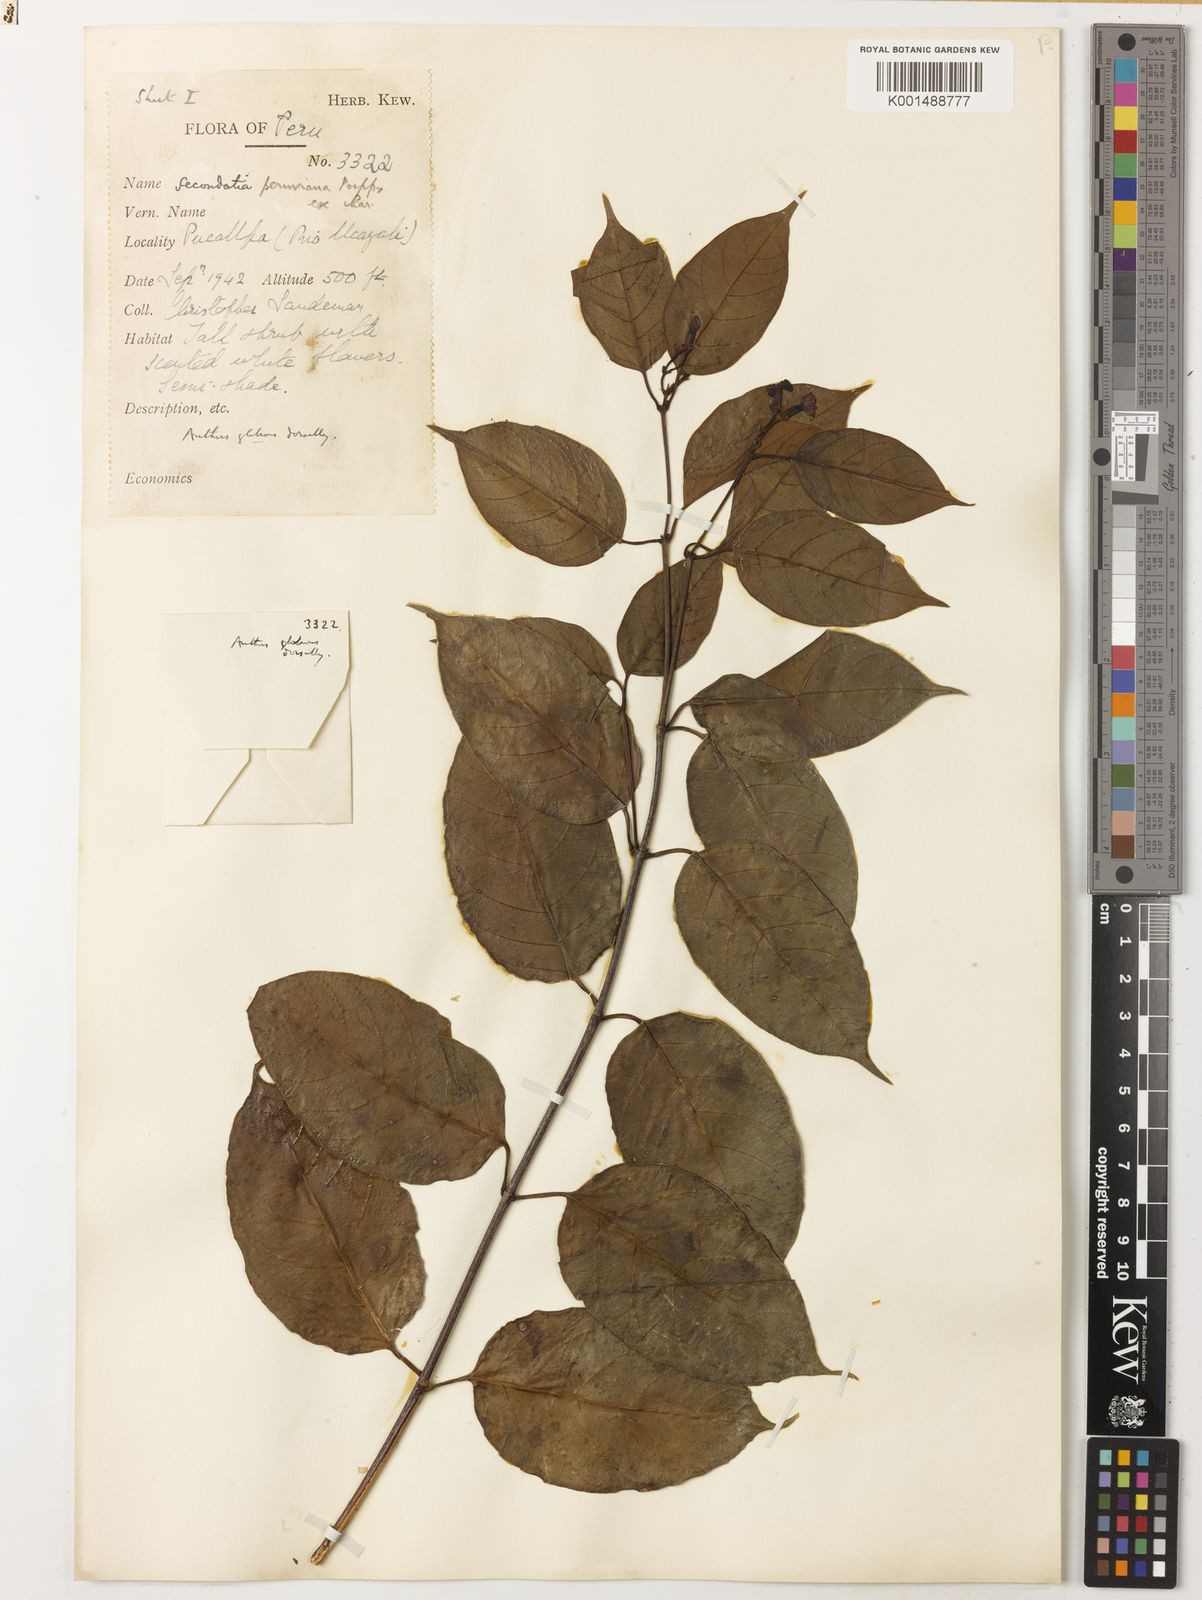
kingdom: Plantae
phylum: Tracheophyta
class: Magnoliopsida
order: Gentianales
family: Apocynaceae
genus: Secondatia
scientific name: Secondatia densiflora
